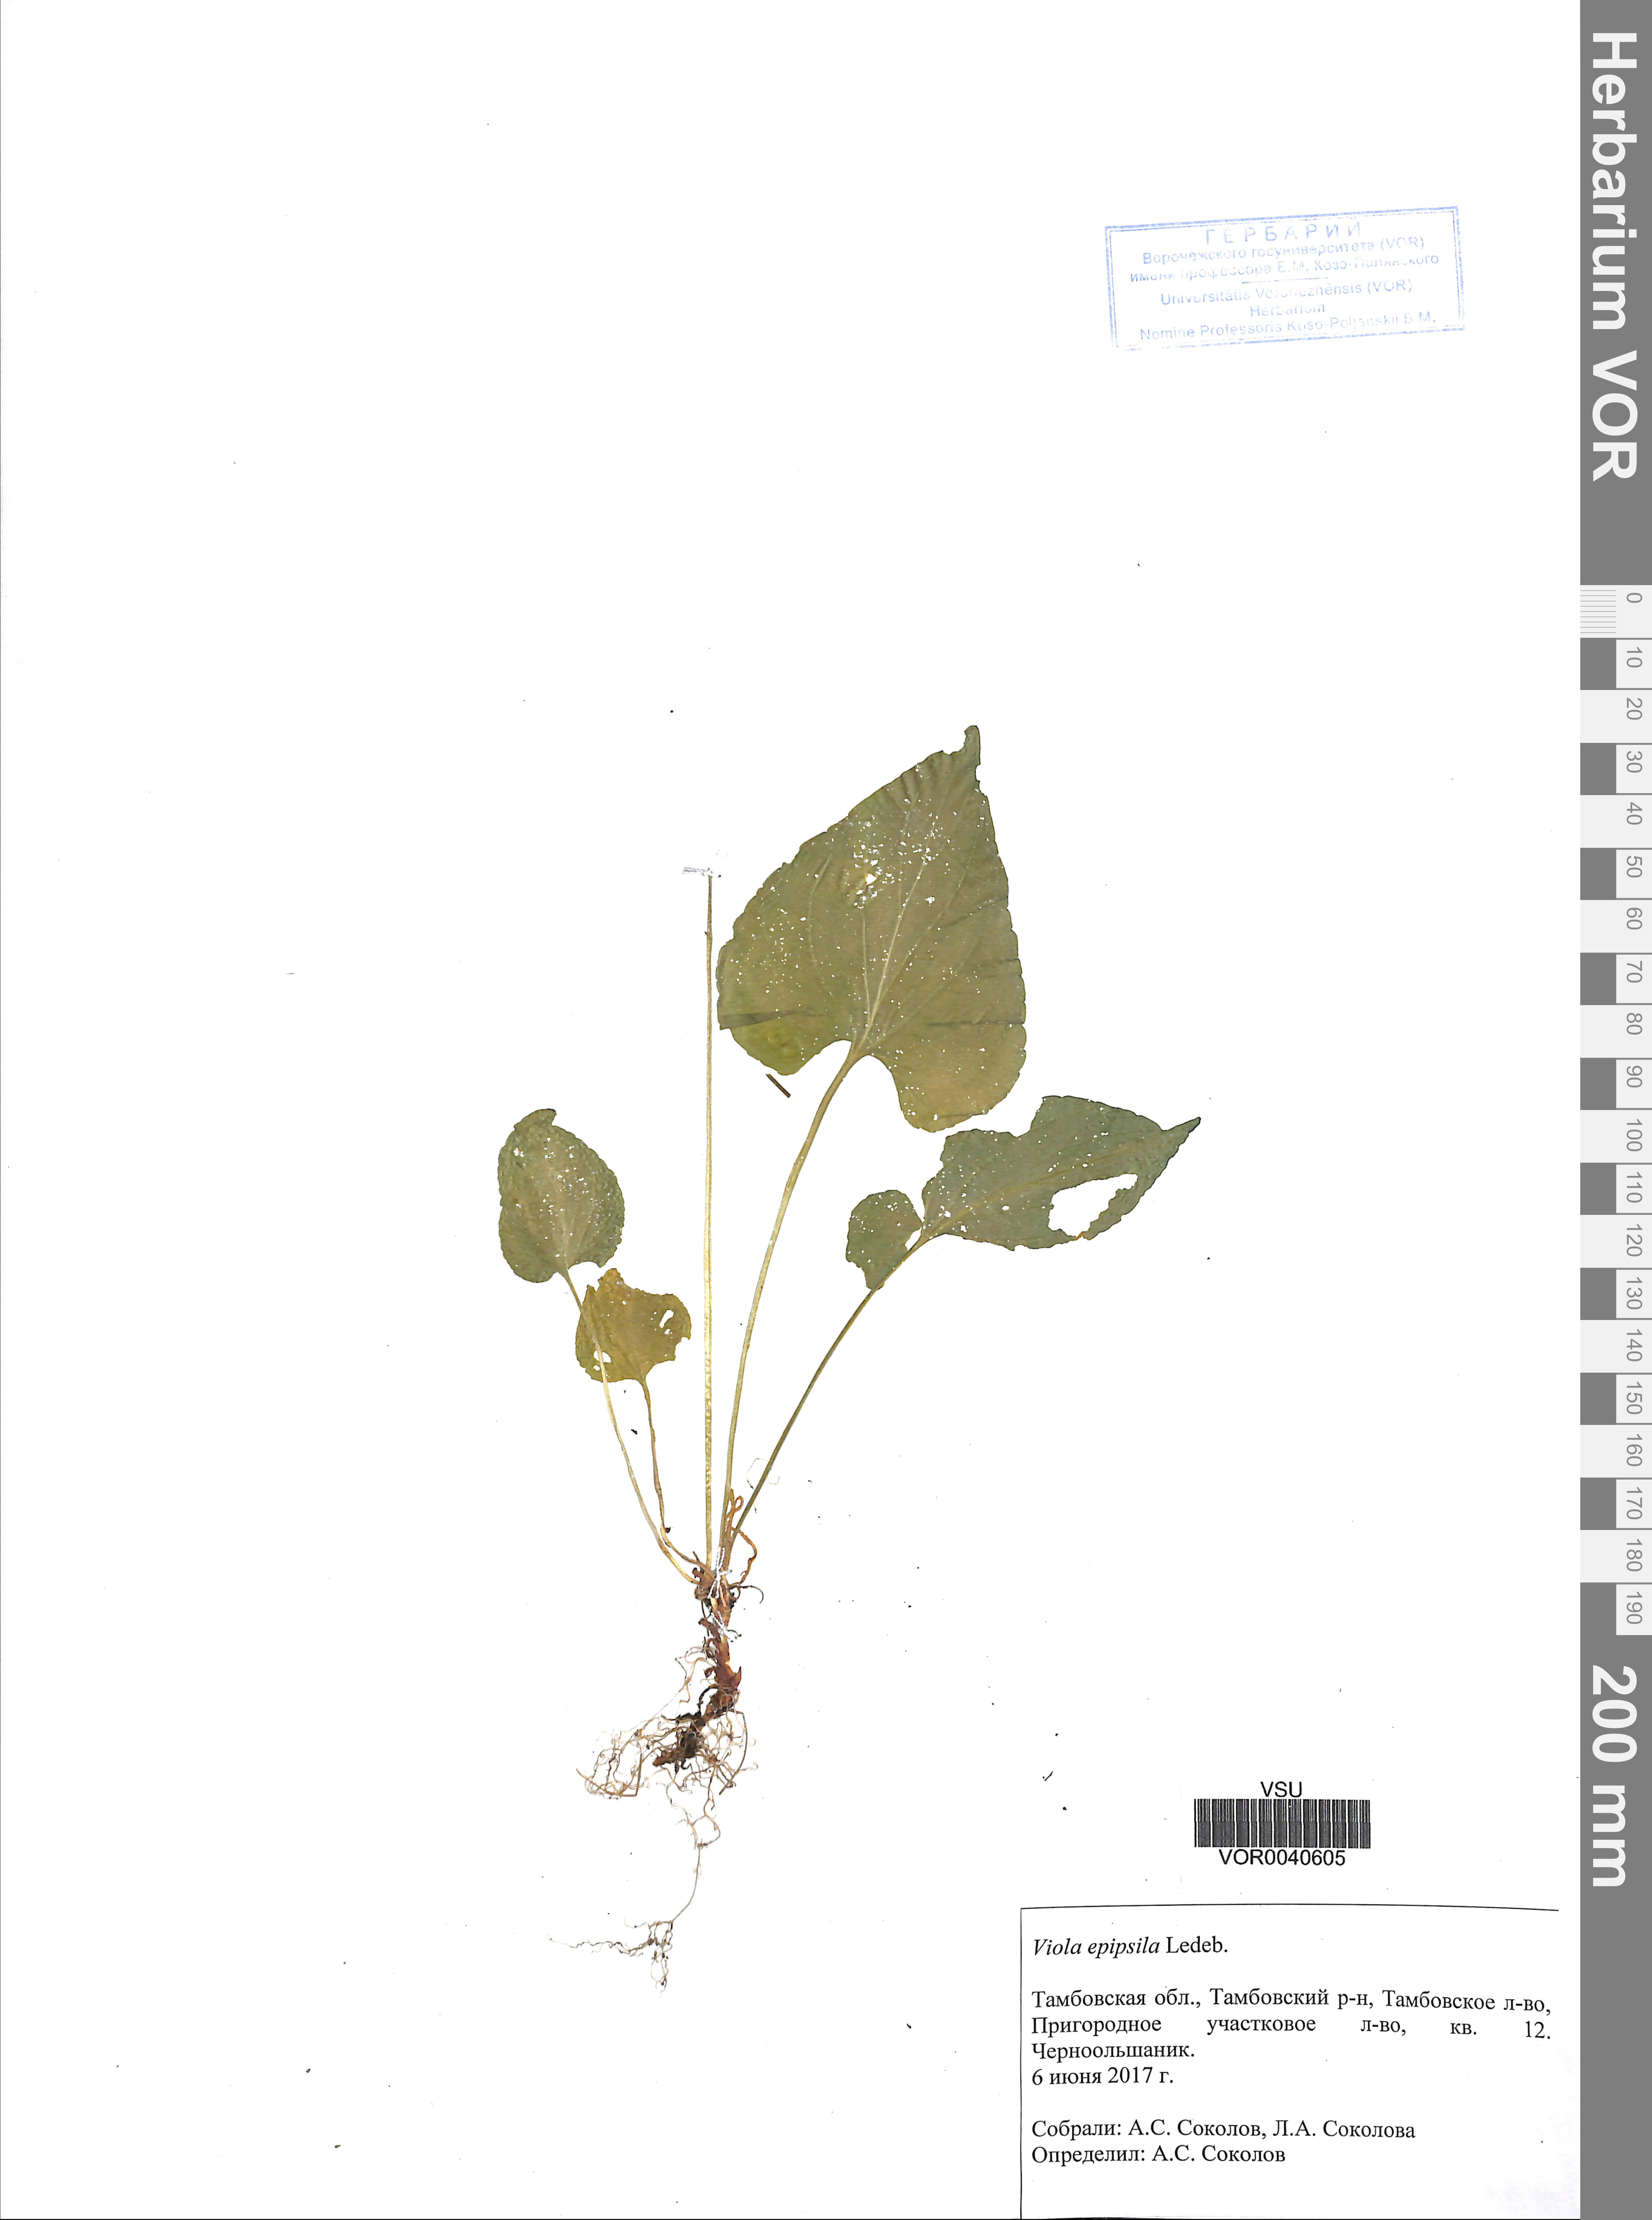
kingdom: Plantae
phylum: Tracheophyta
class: Magnoliopsida
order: Malpighiales
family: Violaceae
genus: Viola
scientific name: Viola epipsila
